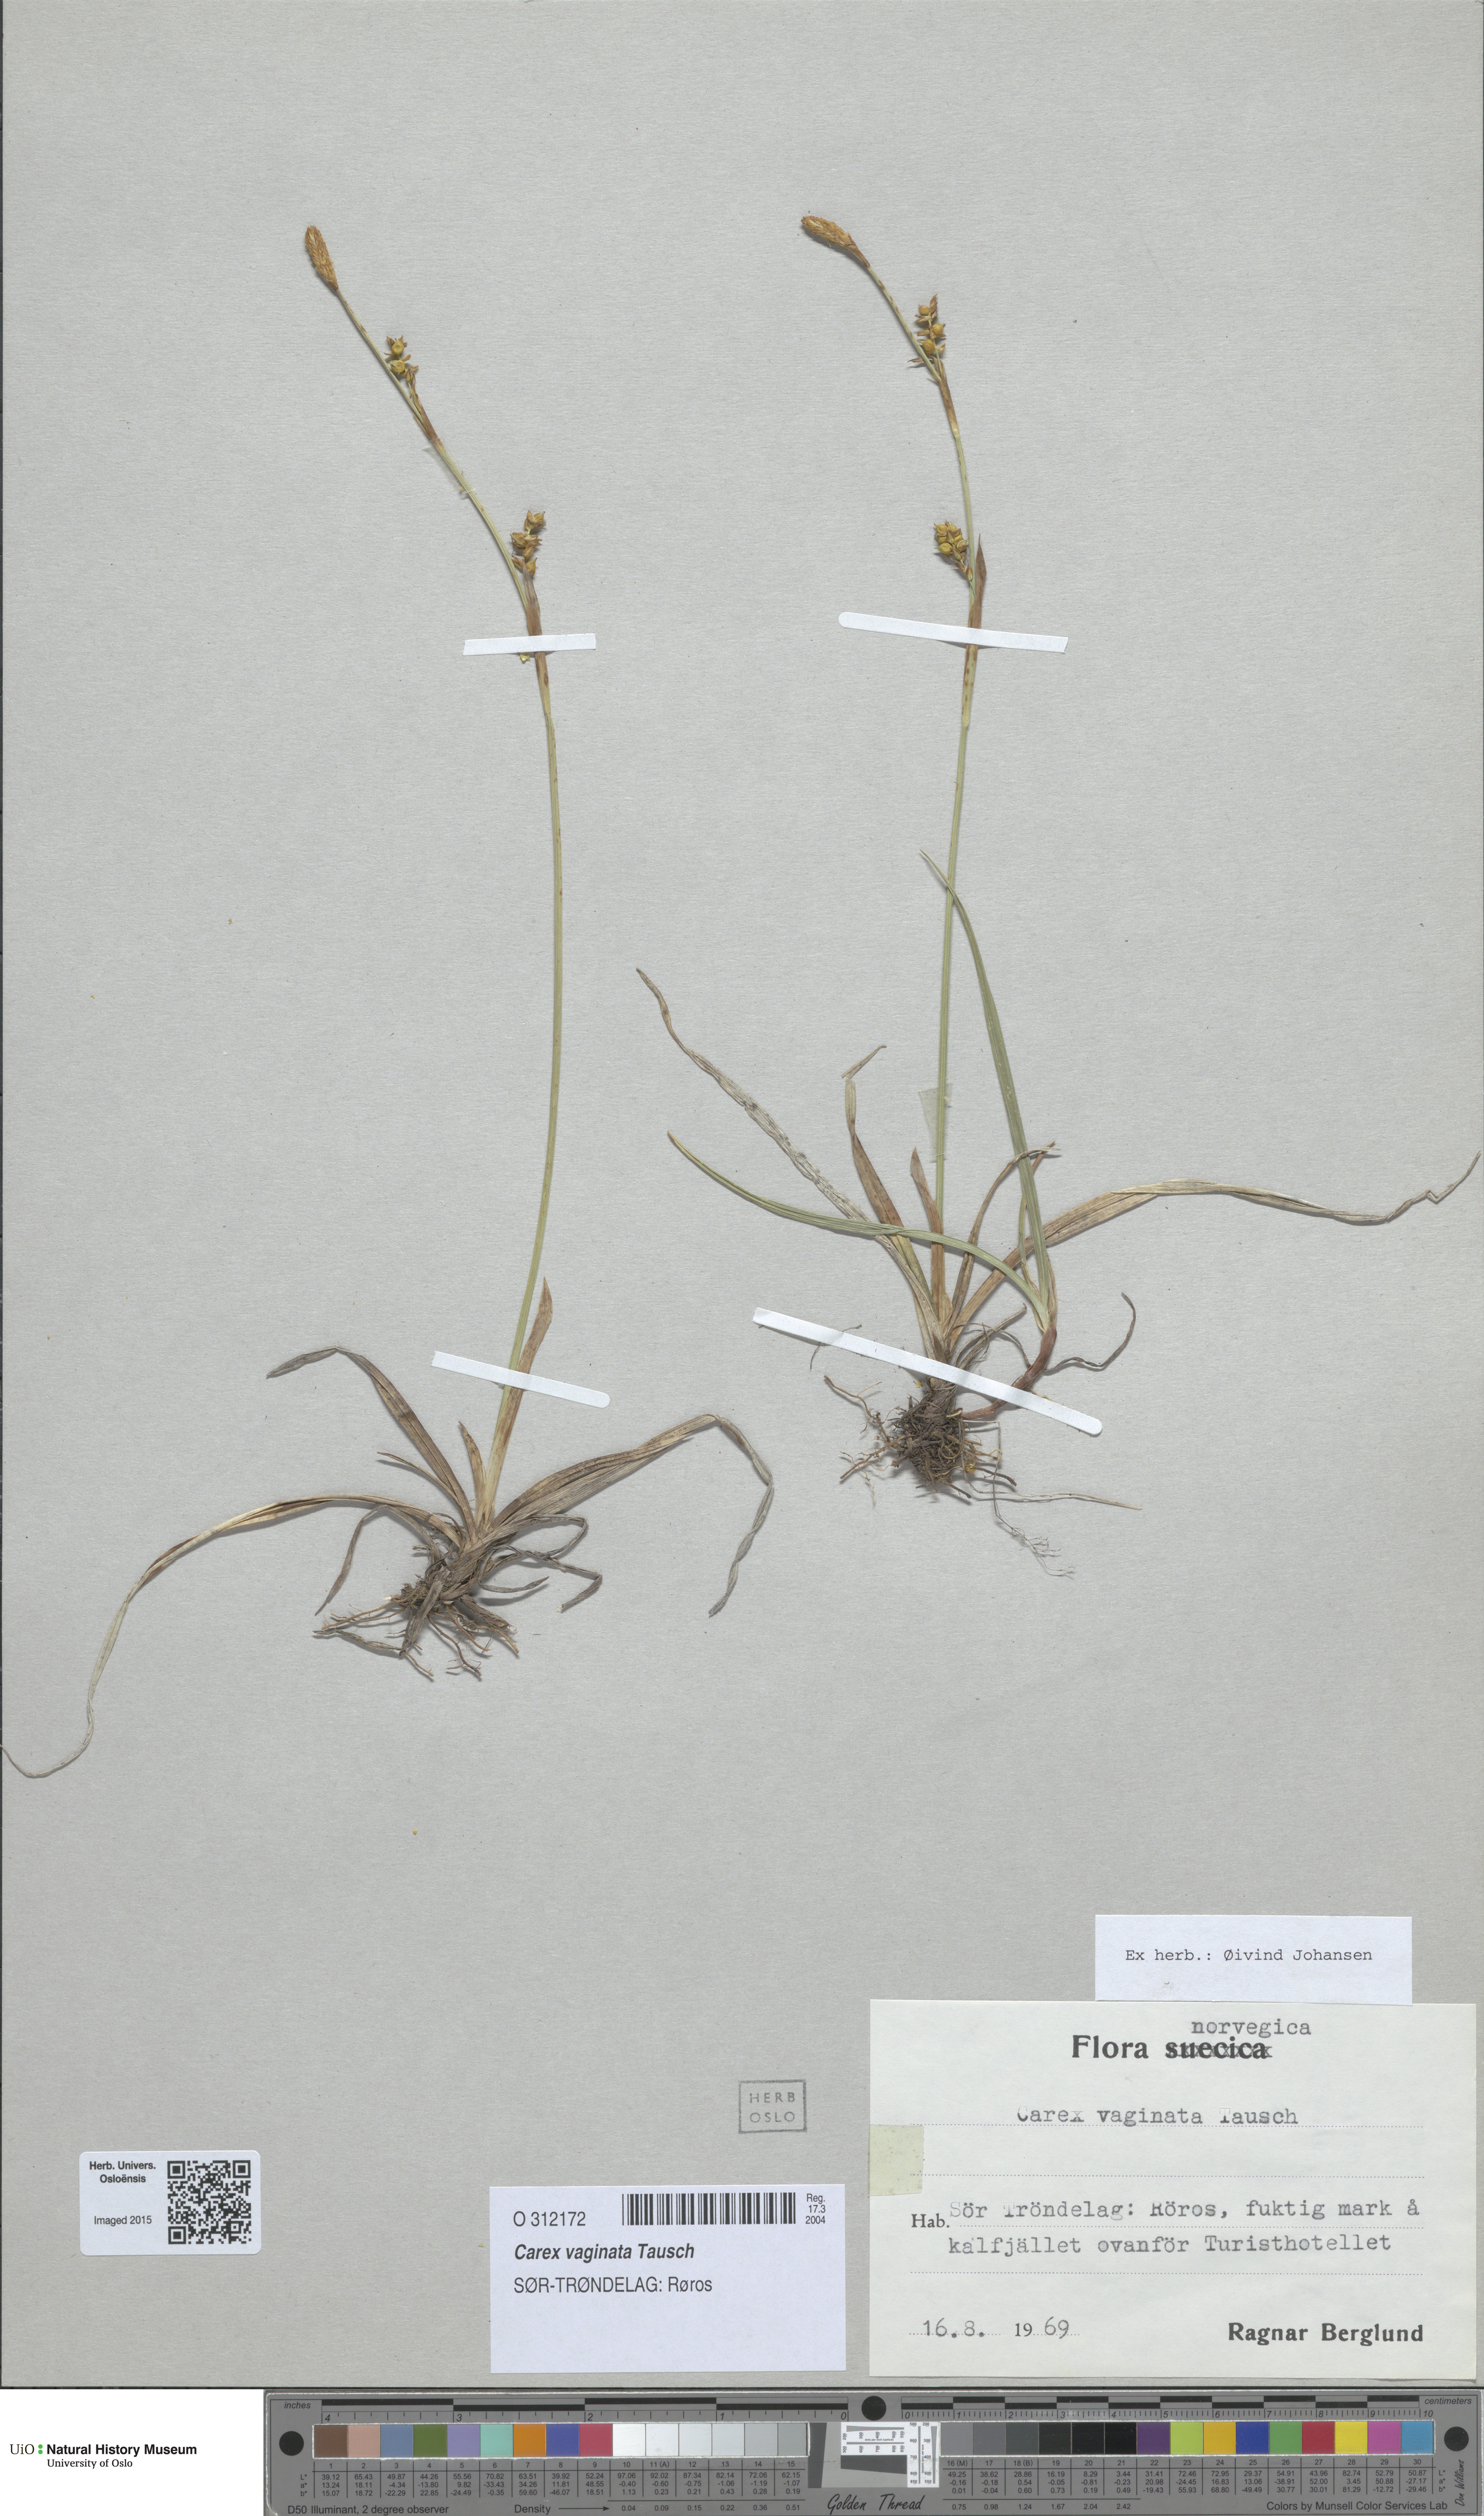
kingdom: Plantae
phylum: Tracheophyta
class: Liliopsida
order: Poales
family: Cyperaceae
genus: Carex
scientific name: Carex vaginata
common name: Sheathed sedge
